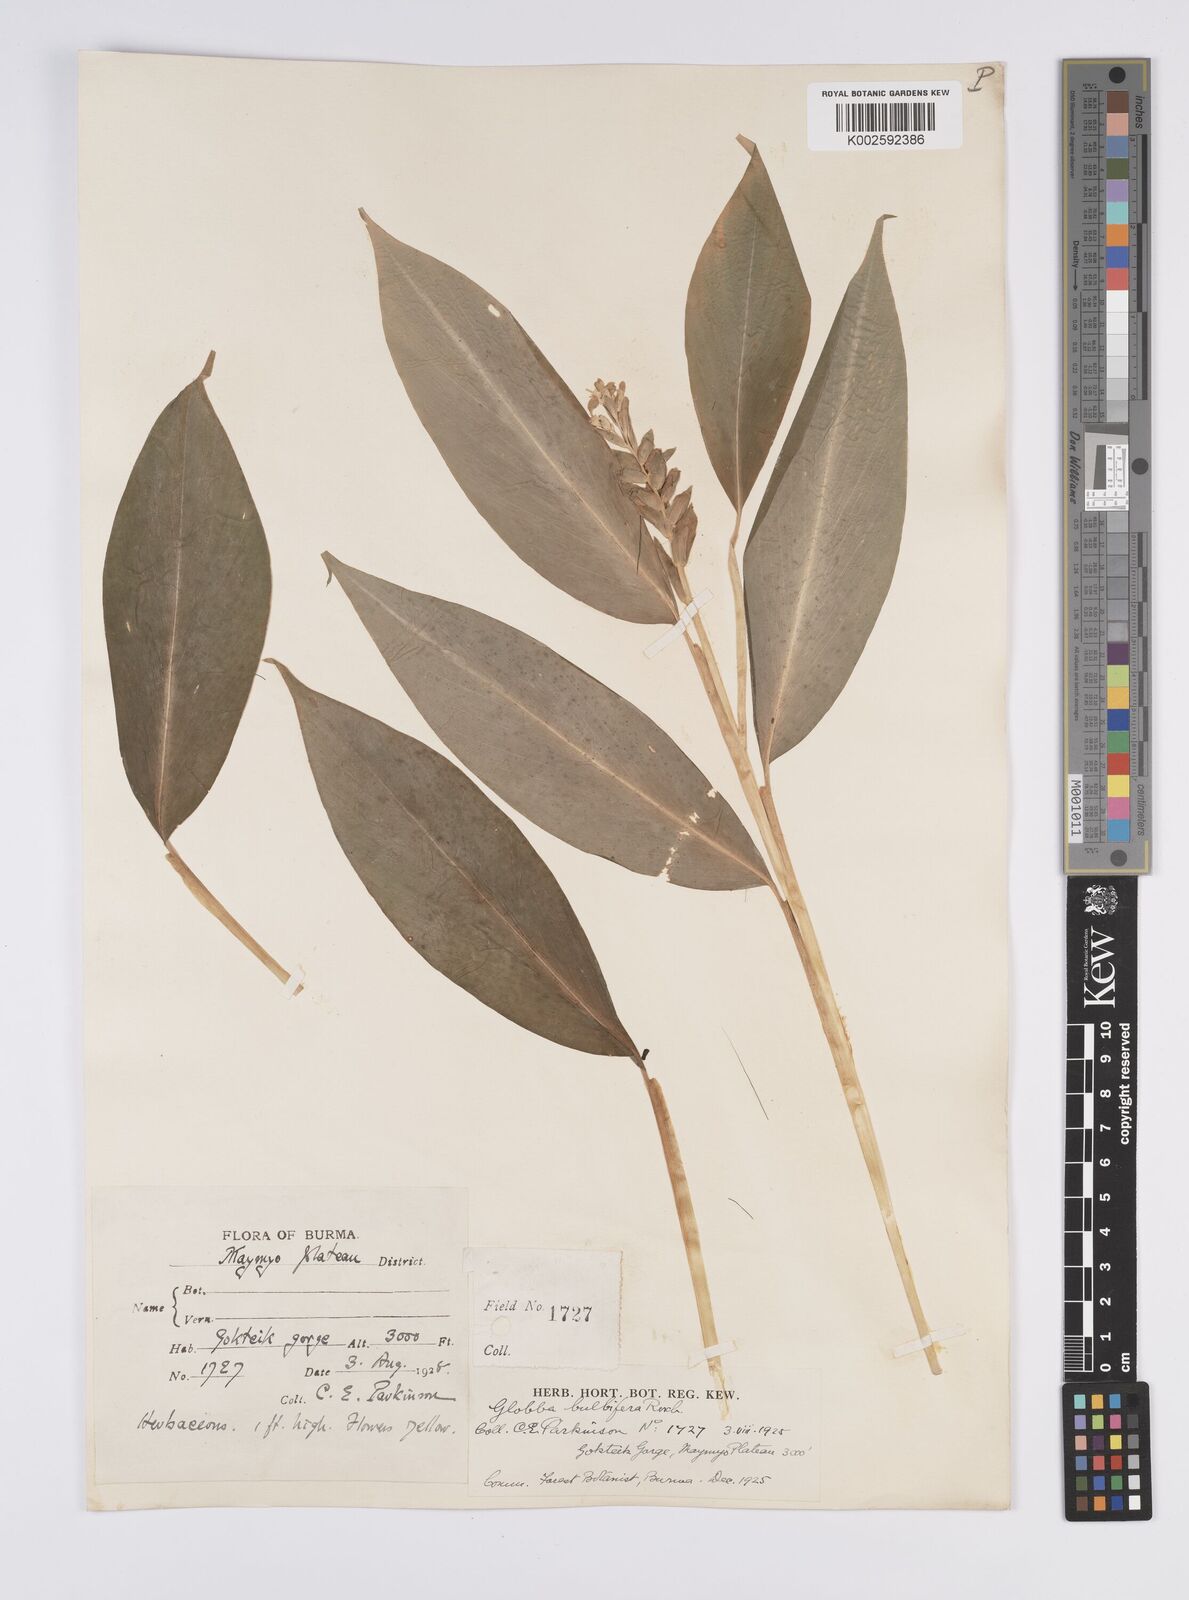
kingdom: Plantae
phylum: Tracheophyta
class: Liliopsida
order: Zingiberales
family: Zingiberaceae
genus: Globba
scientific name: Globba marantina
